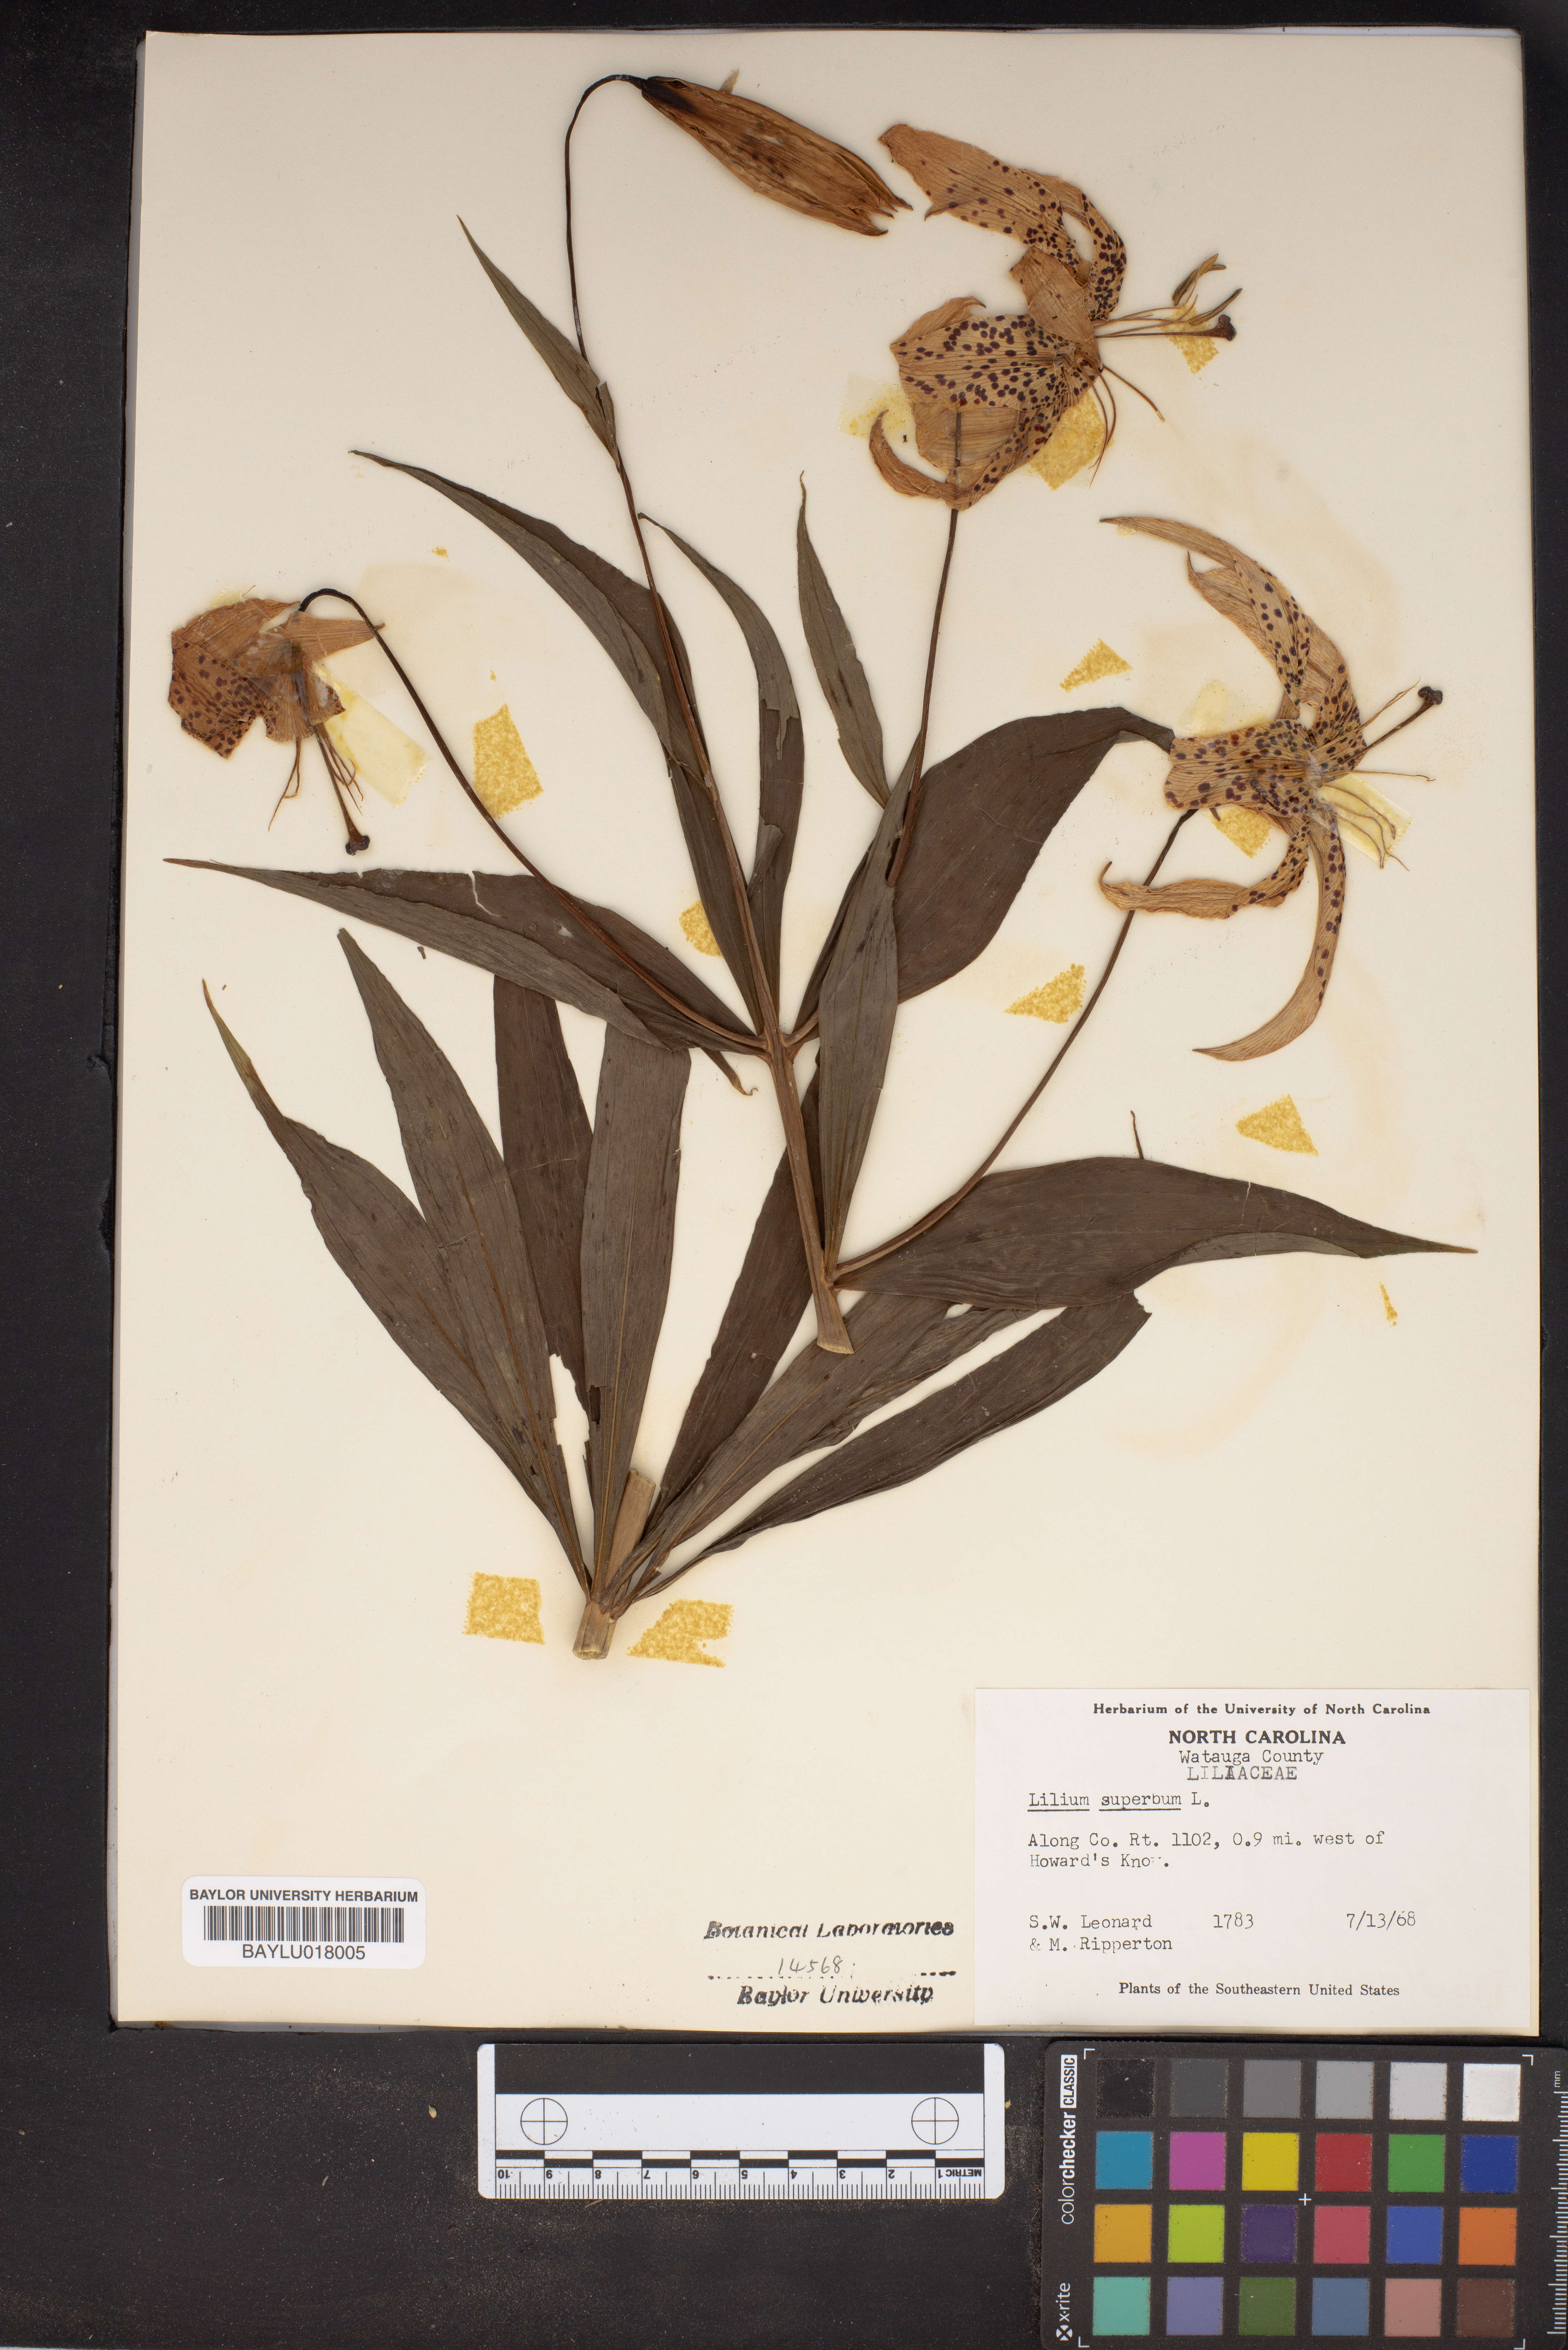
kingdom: Plantae
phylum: Tracheophyta
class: Liliopsida
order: Liliales
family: Liliaceae
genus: Lilium
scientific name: Lilium superbum
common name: American turk's-cap lily
